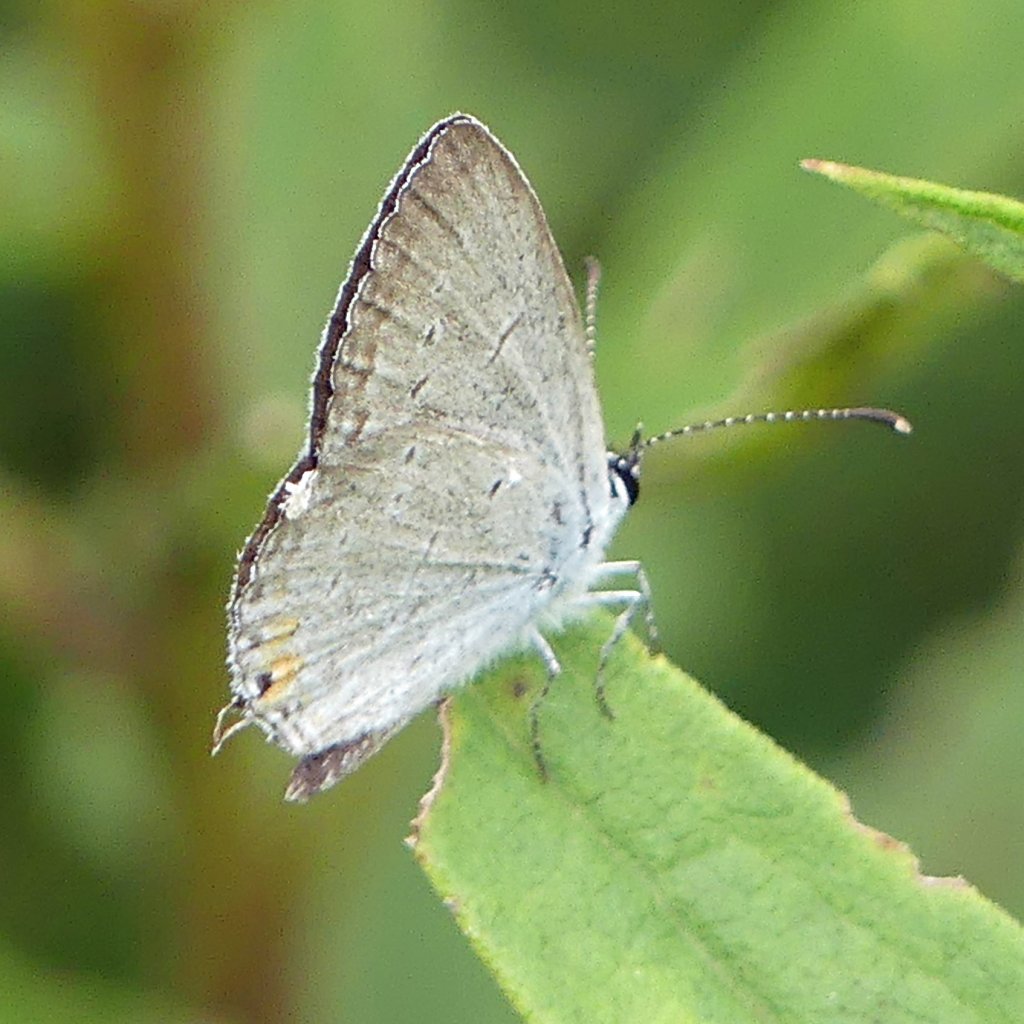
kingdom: Animalia
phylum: Arthropoda
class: Insecta
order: Lepidoptera
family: Lycaenidae
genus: Elkalyce
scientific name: Elkalyce comyntas
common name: Eastern Tailed-Blue
